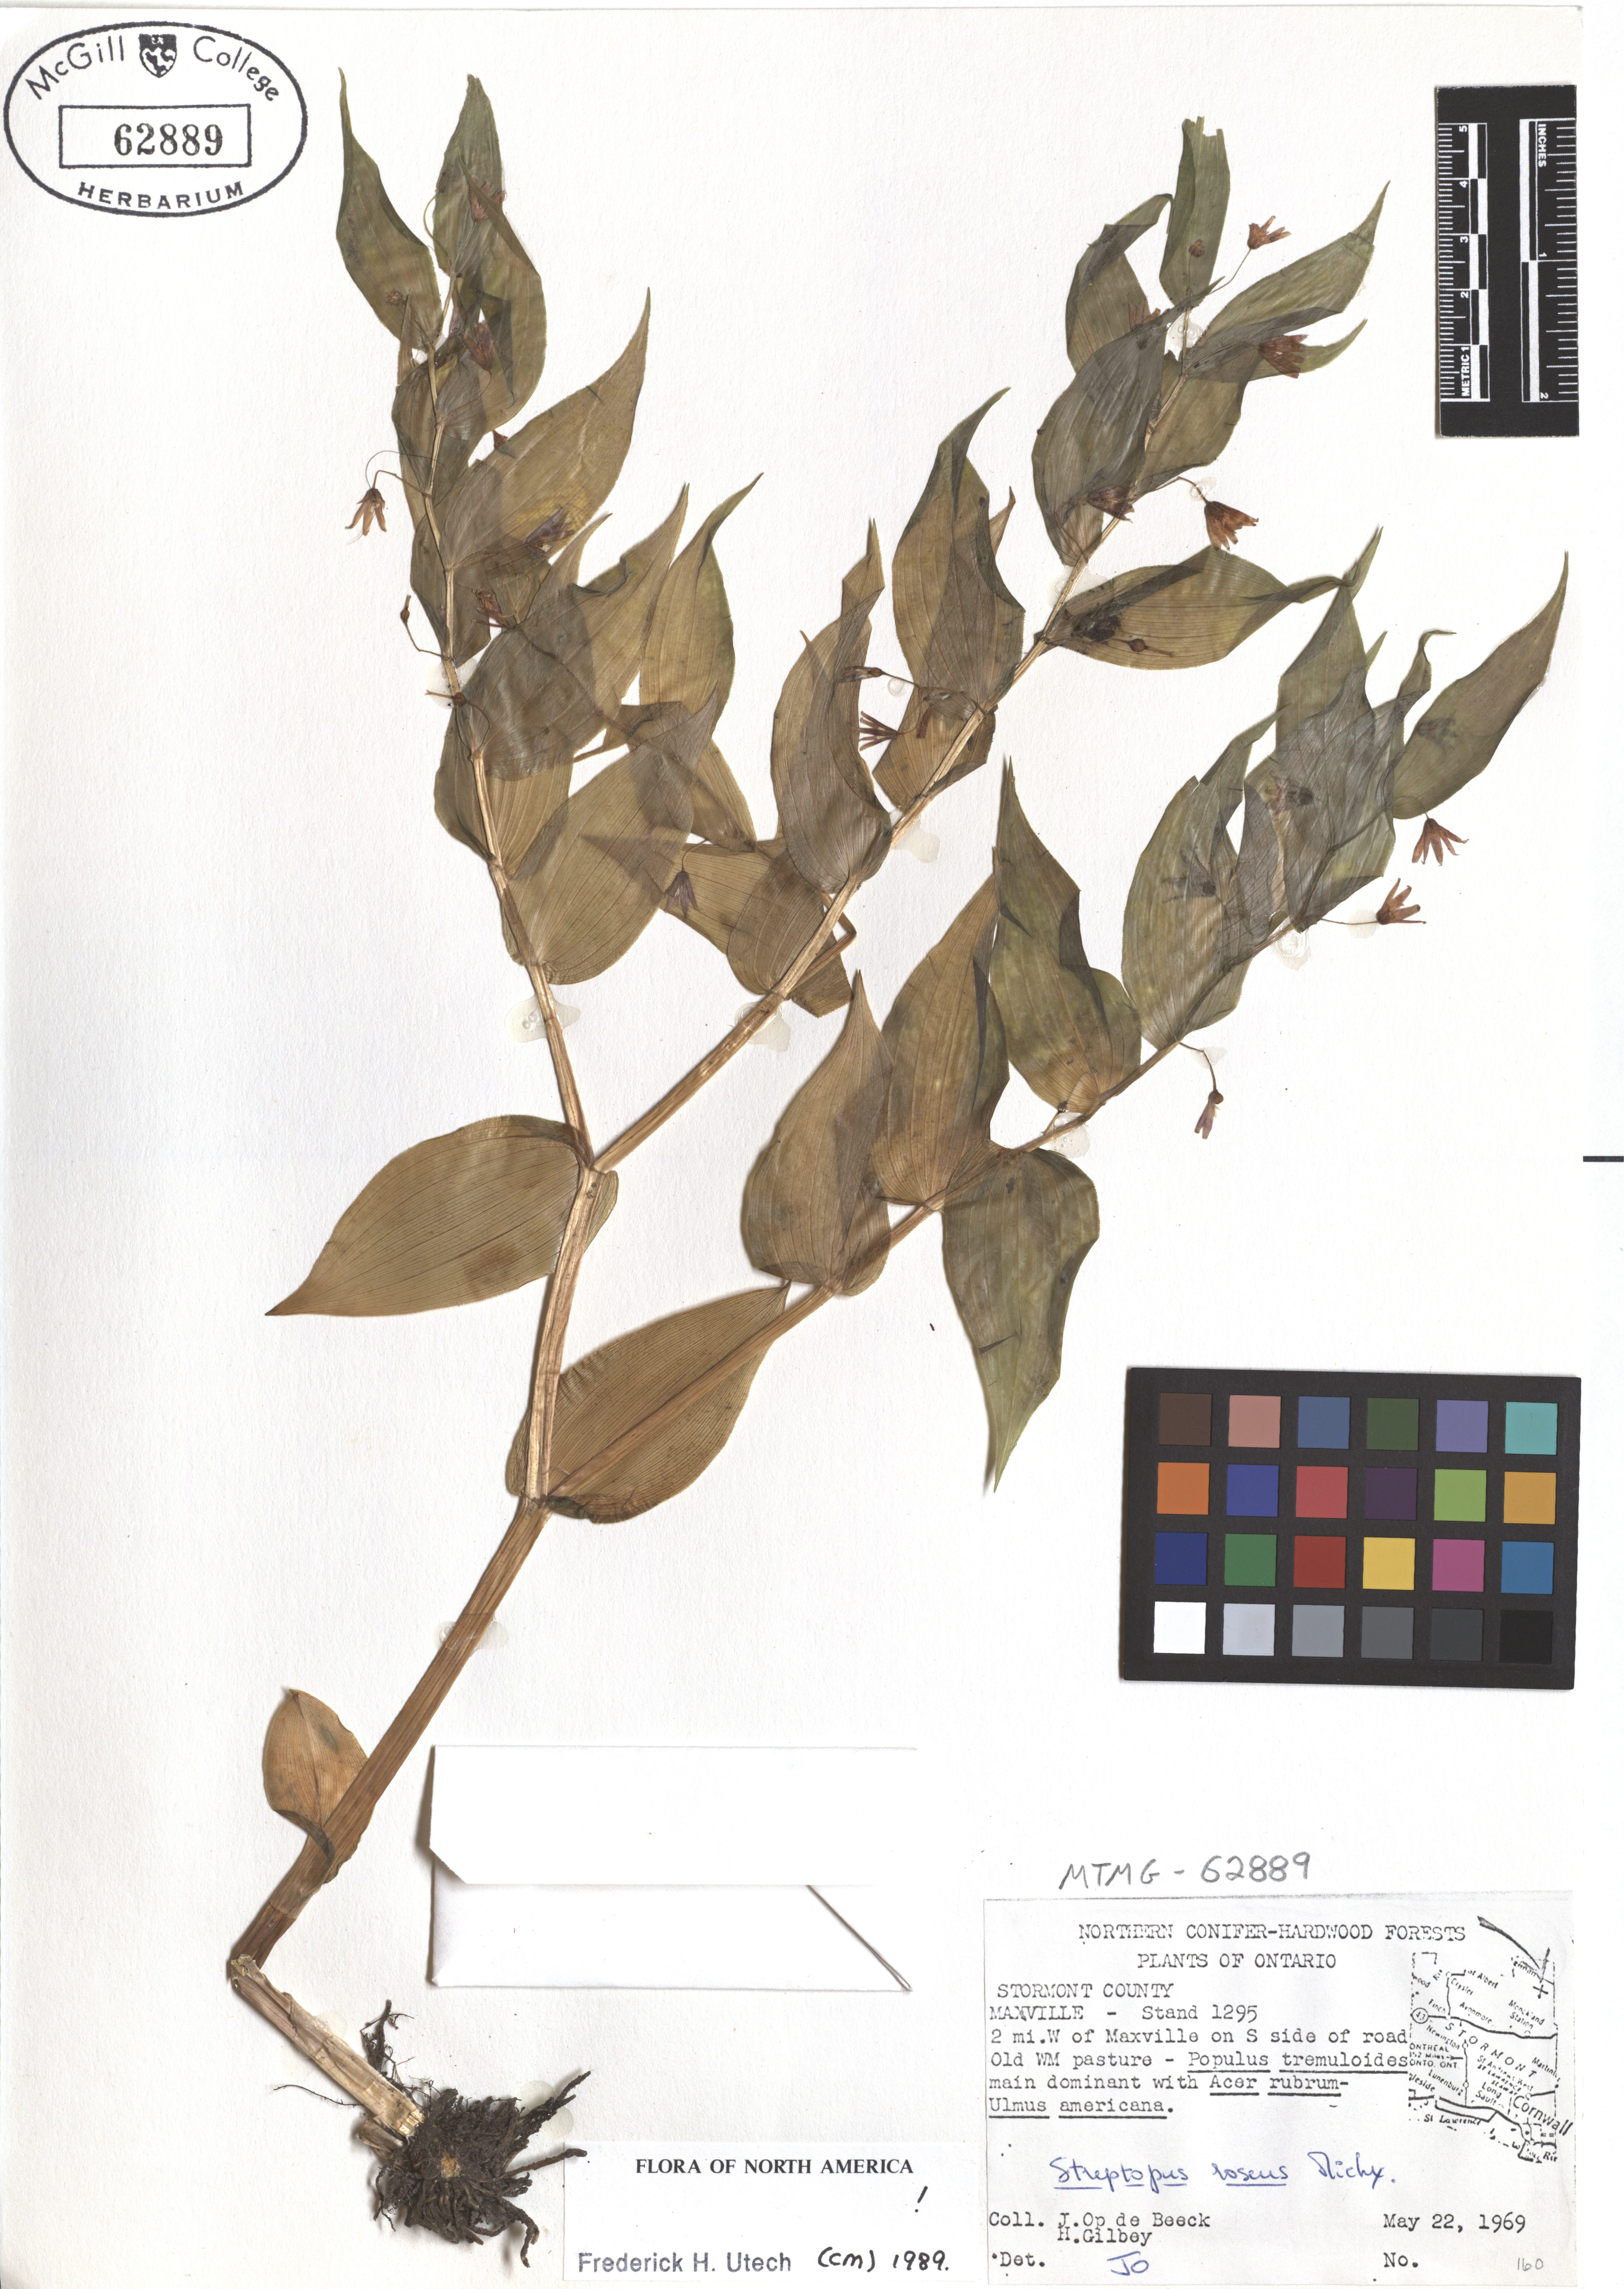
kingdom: Plantae
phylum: Tracheophyta
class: Liliopsida
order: Liliales
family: Liliaceae
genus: Streptopus
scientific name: Streptopus lanceolatus
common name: Rose mandarin
